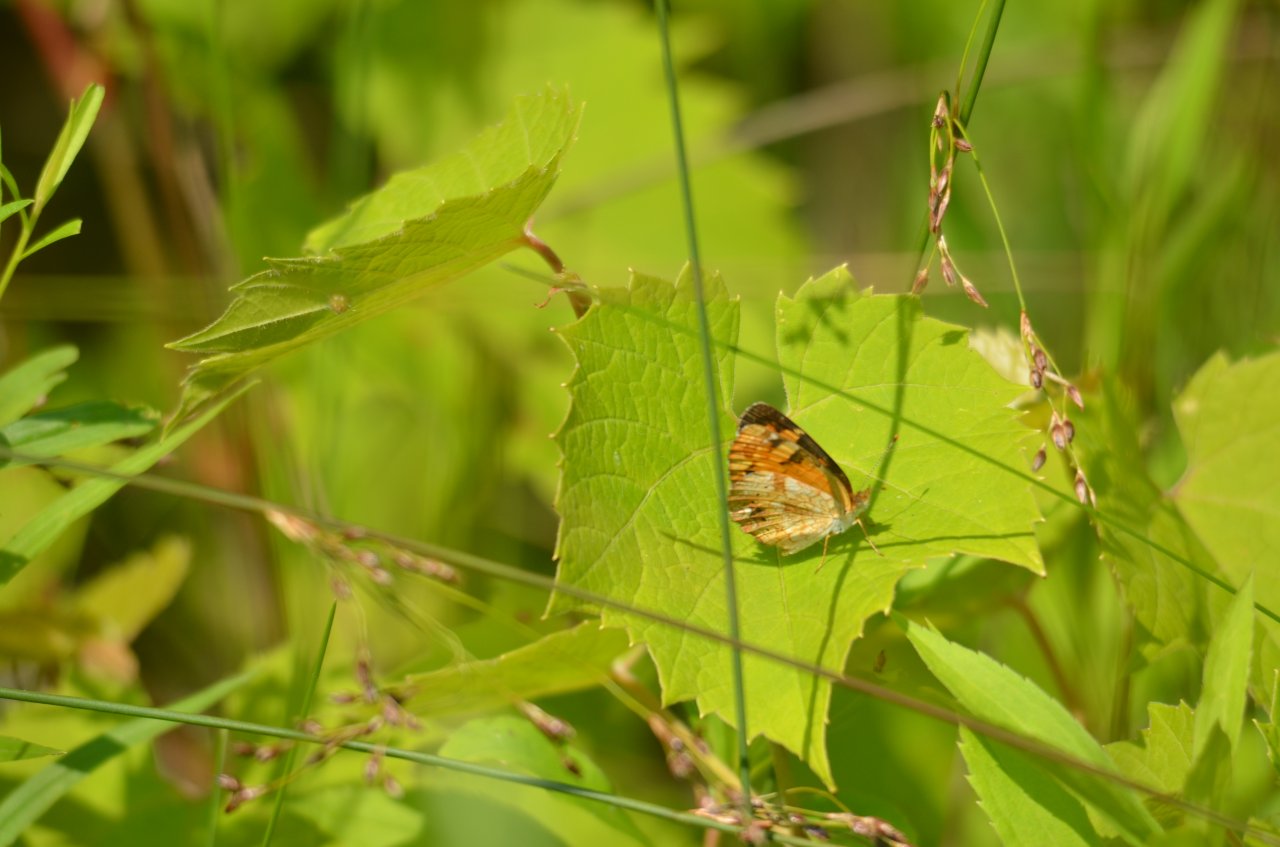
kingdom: Animalia
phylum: Arthropoda
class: Insecta
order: Lepidoptera
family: Nymphalidae
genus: Phyciodes
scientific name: Phyciodes tharos
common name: Northern Crescent
